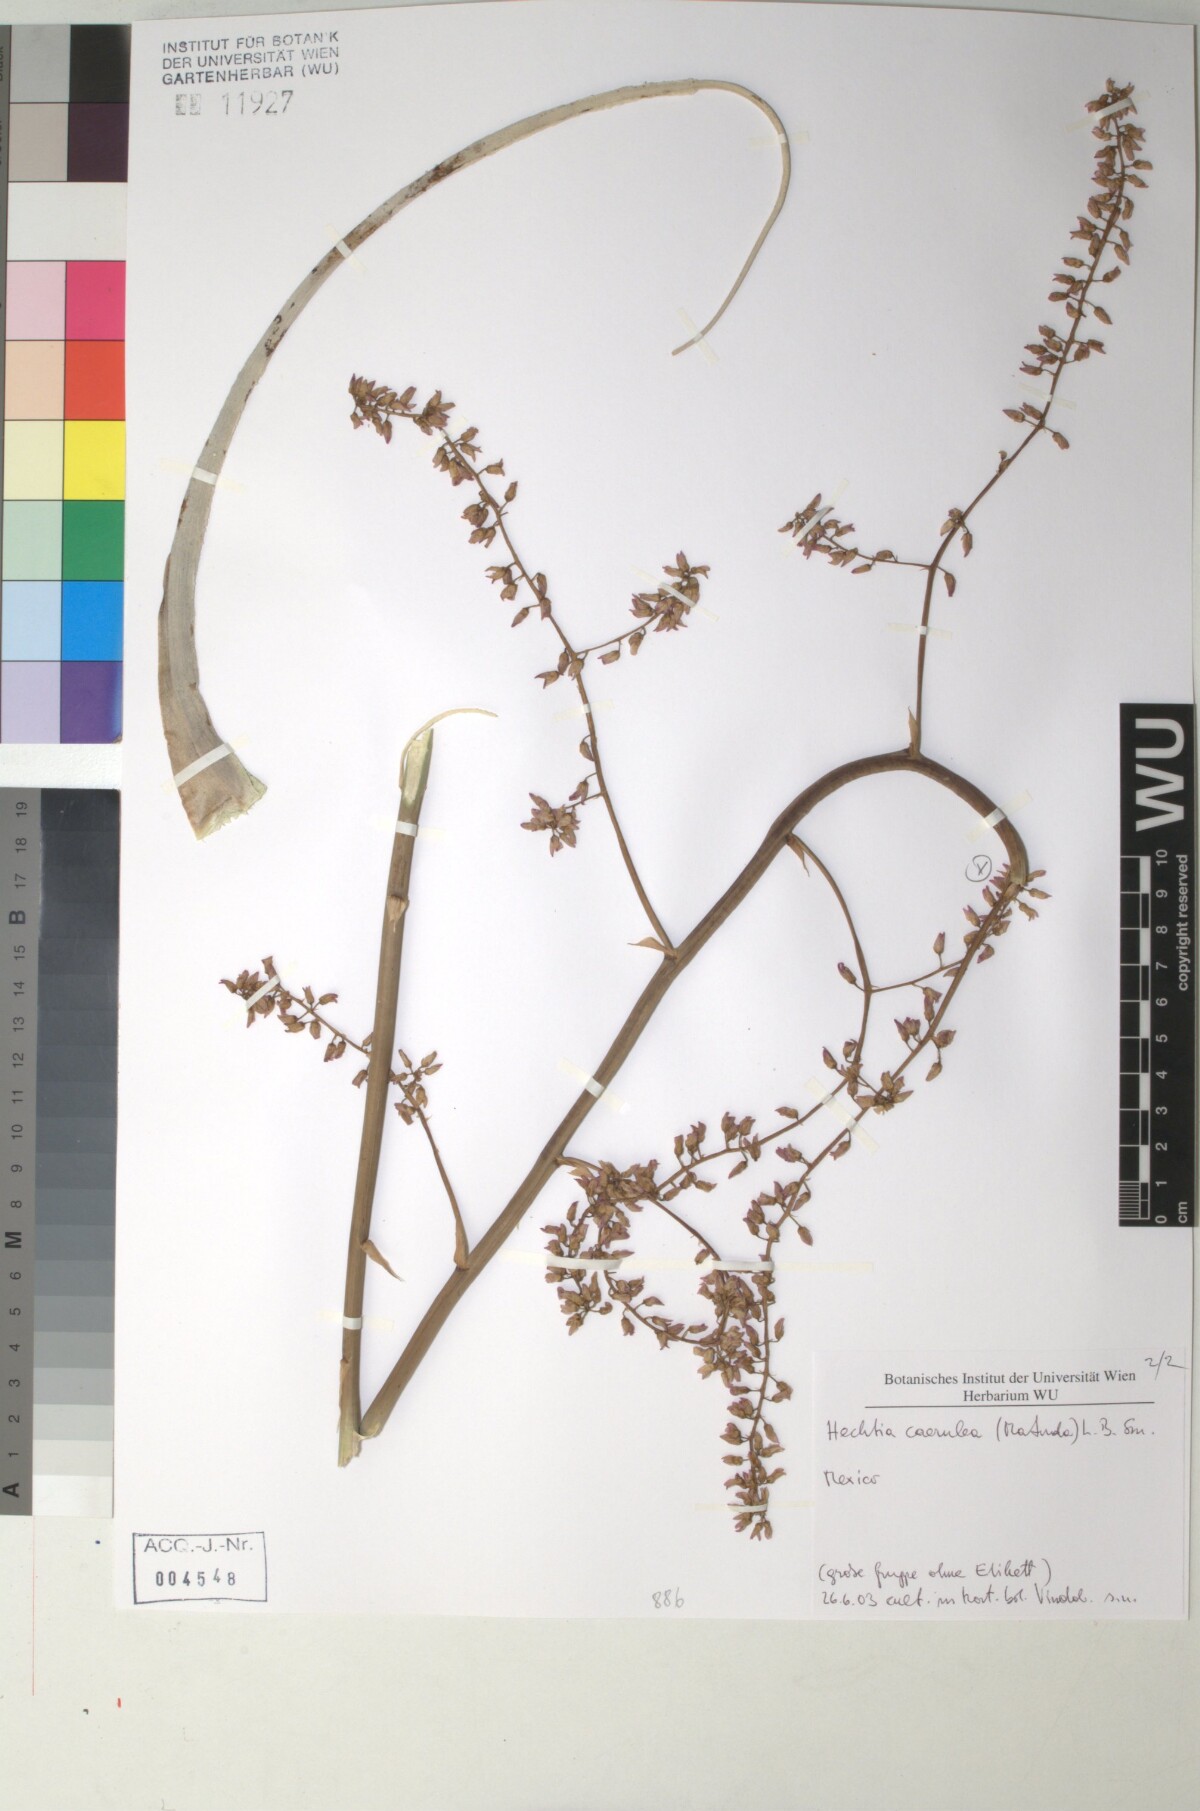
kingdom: Plantae
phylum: Tracheophyta
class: Liliopsida
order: Poales
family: Bromeliaceae
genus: Hechtia
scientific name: Hechtia
